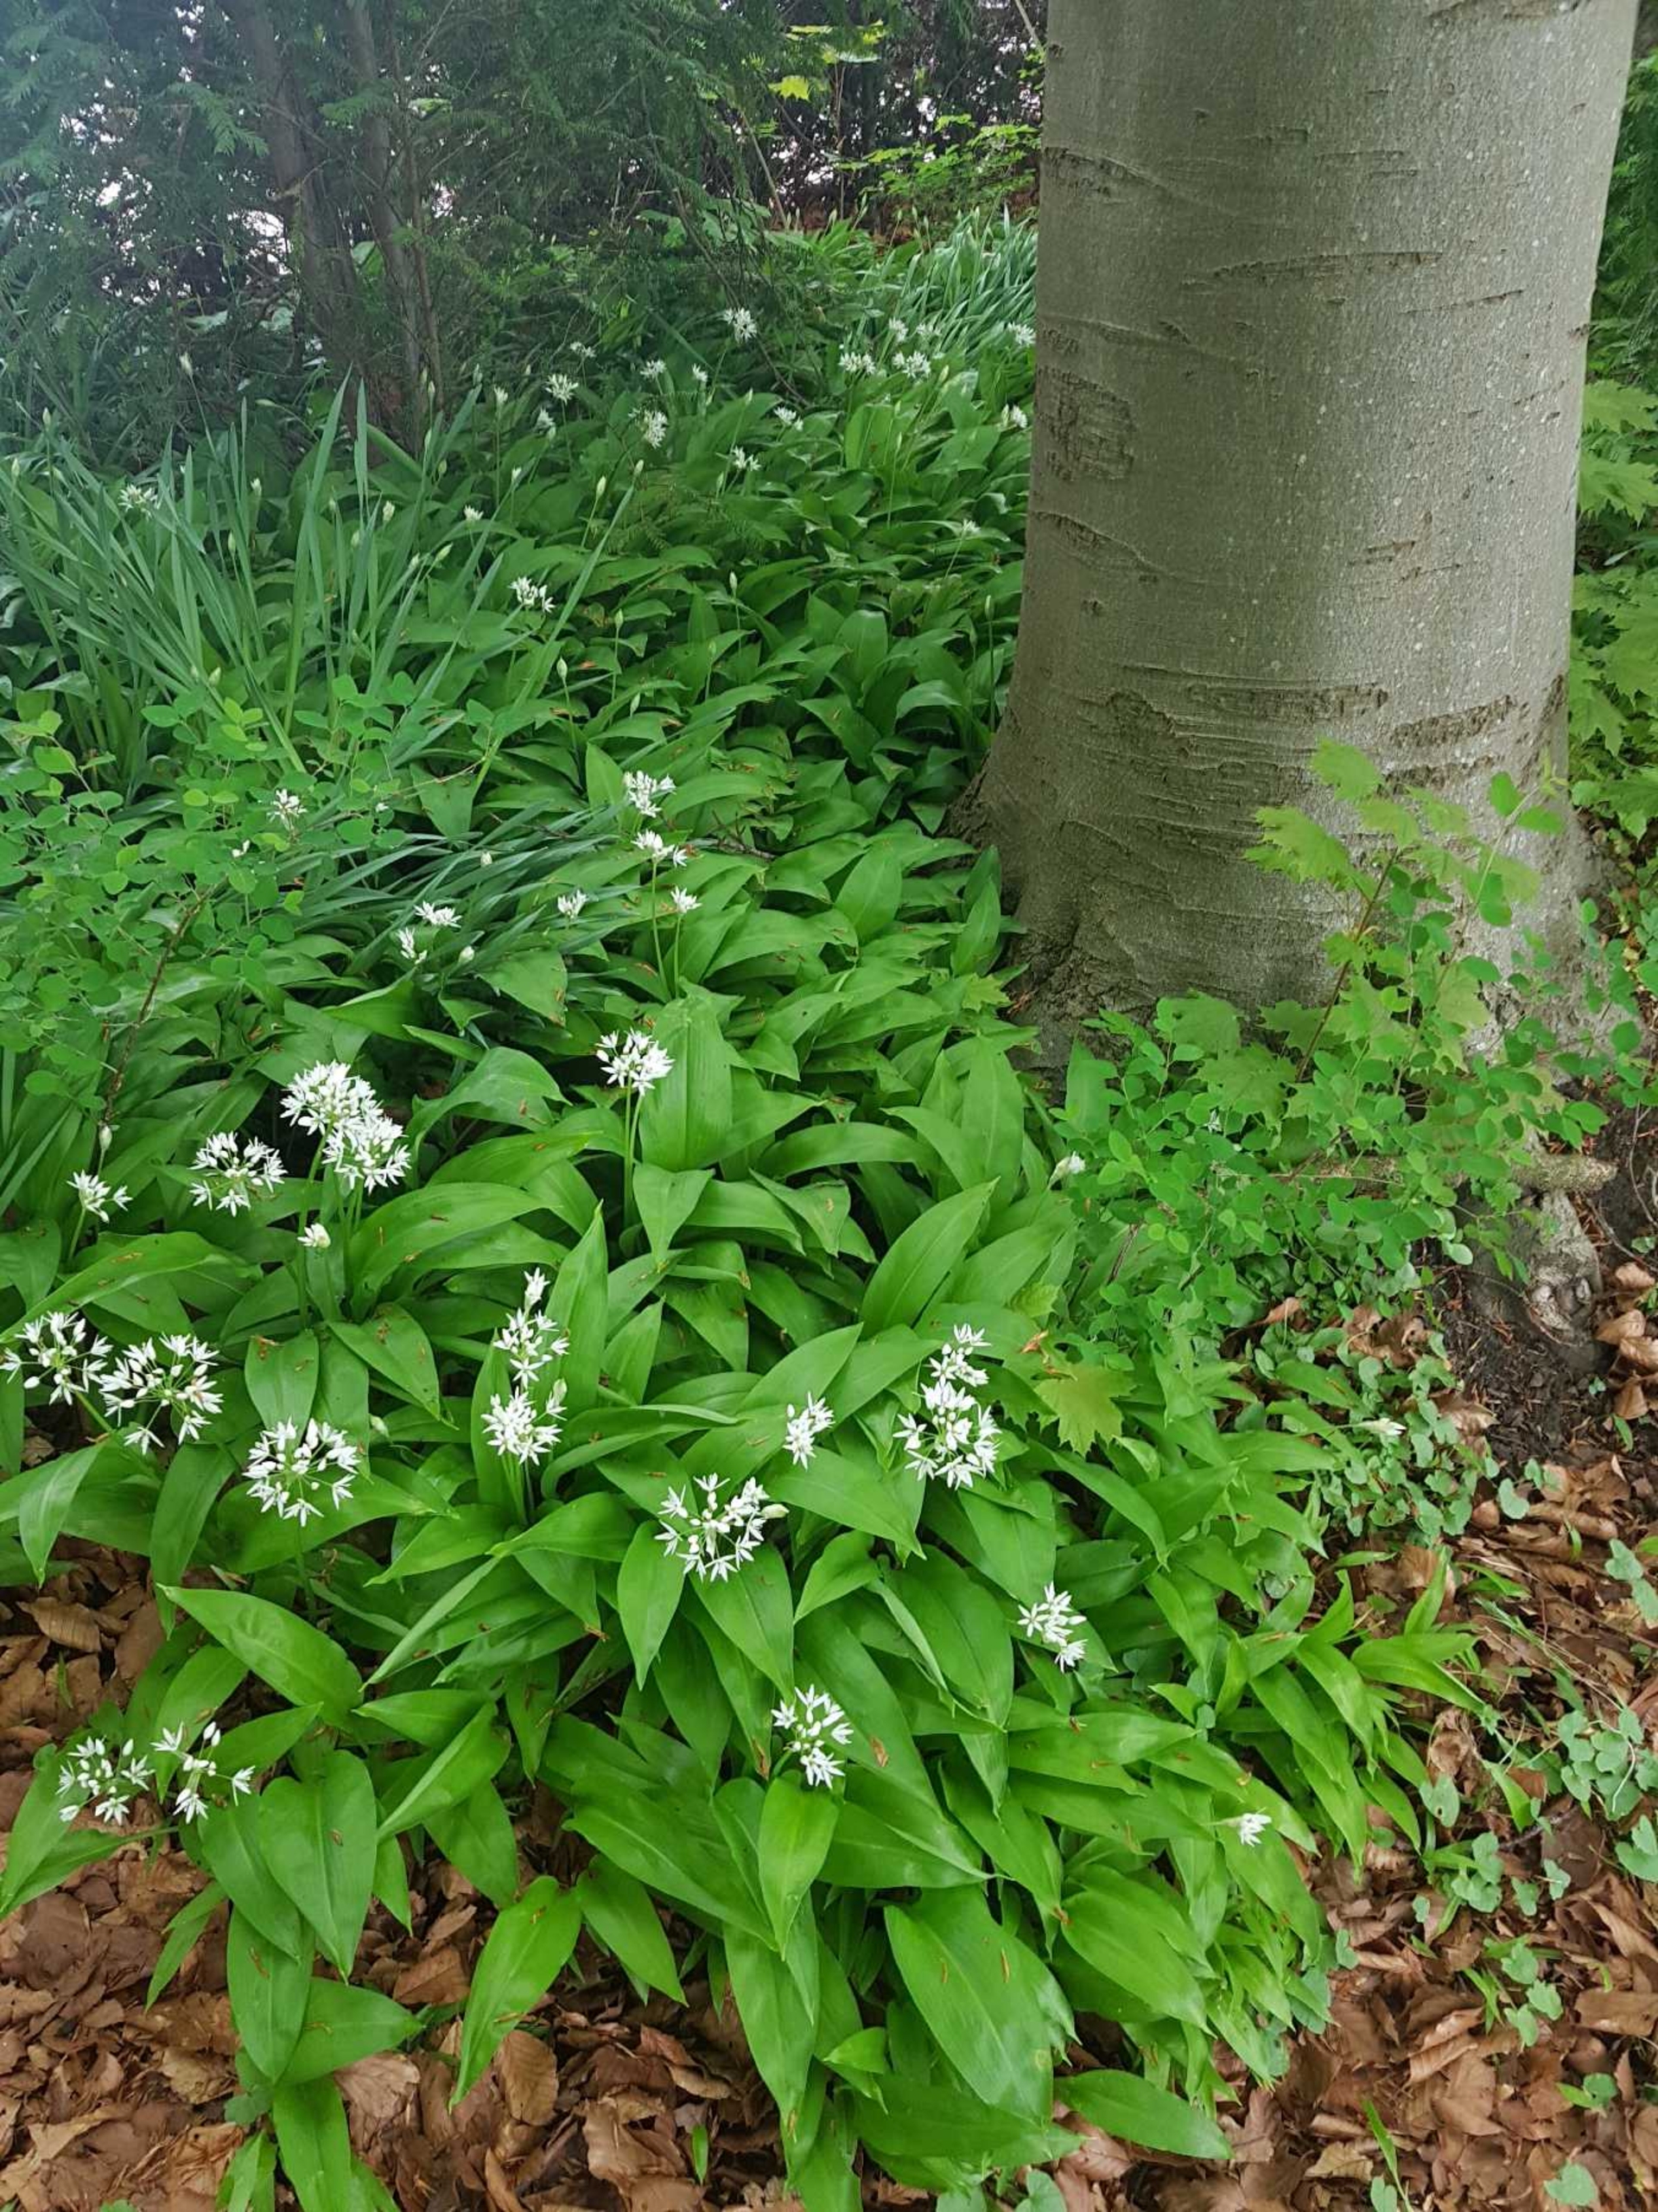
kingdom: Plantae
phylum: Tracheophyta
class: Liliopsida
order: Asparagales
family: Amaryllidaceae
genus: Allium
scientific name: Allium ursinum
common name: Rams-løg
